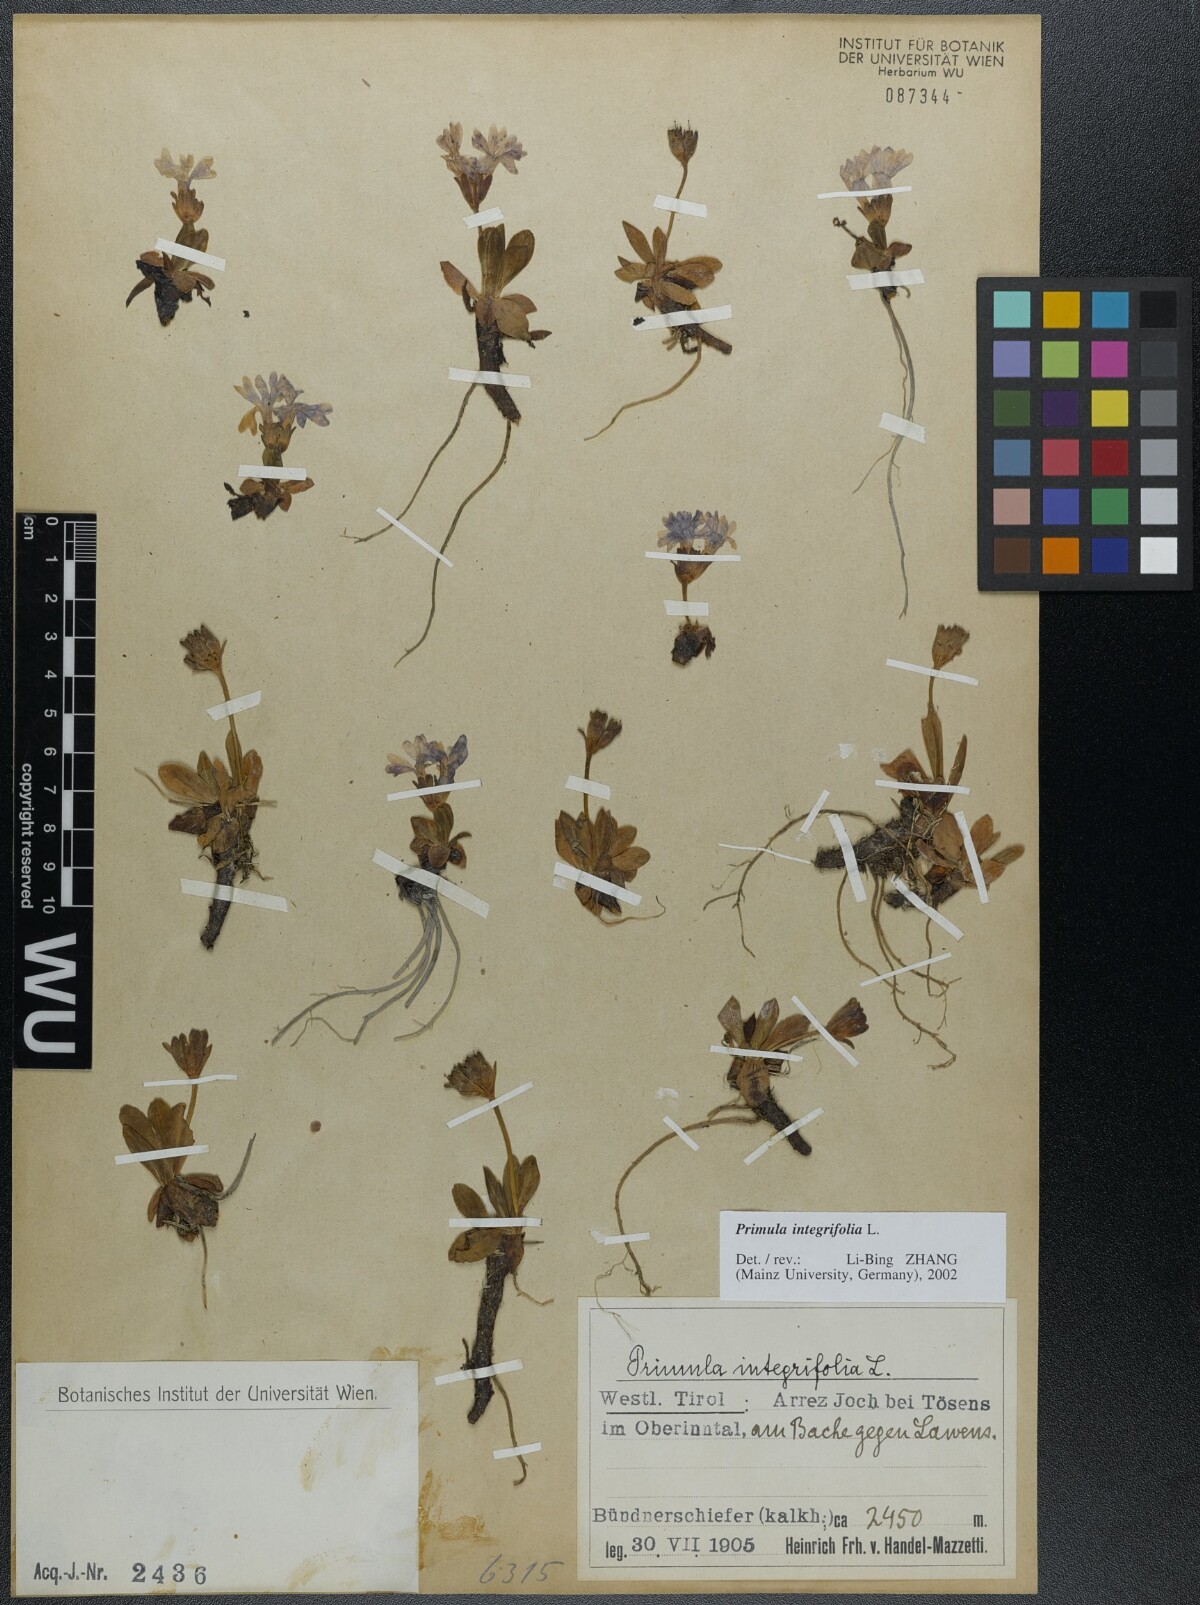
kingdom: Plantae
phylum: Tracheophyta
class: Magnoliopsida
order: Ericales
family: Primulaceae
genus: Primula
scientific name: Primula integrifolia
